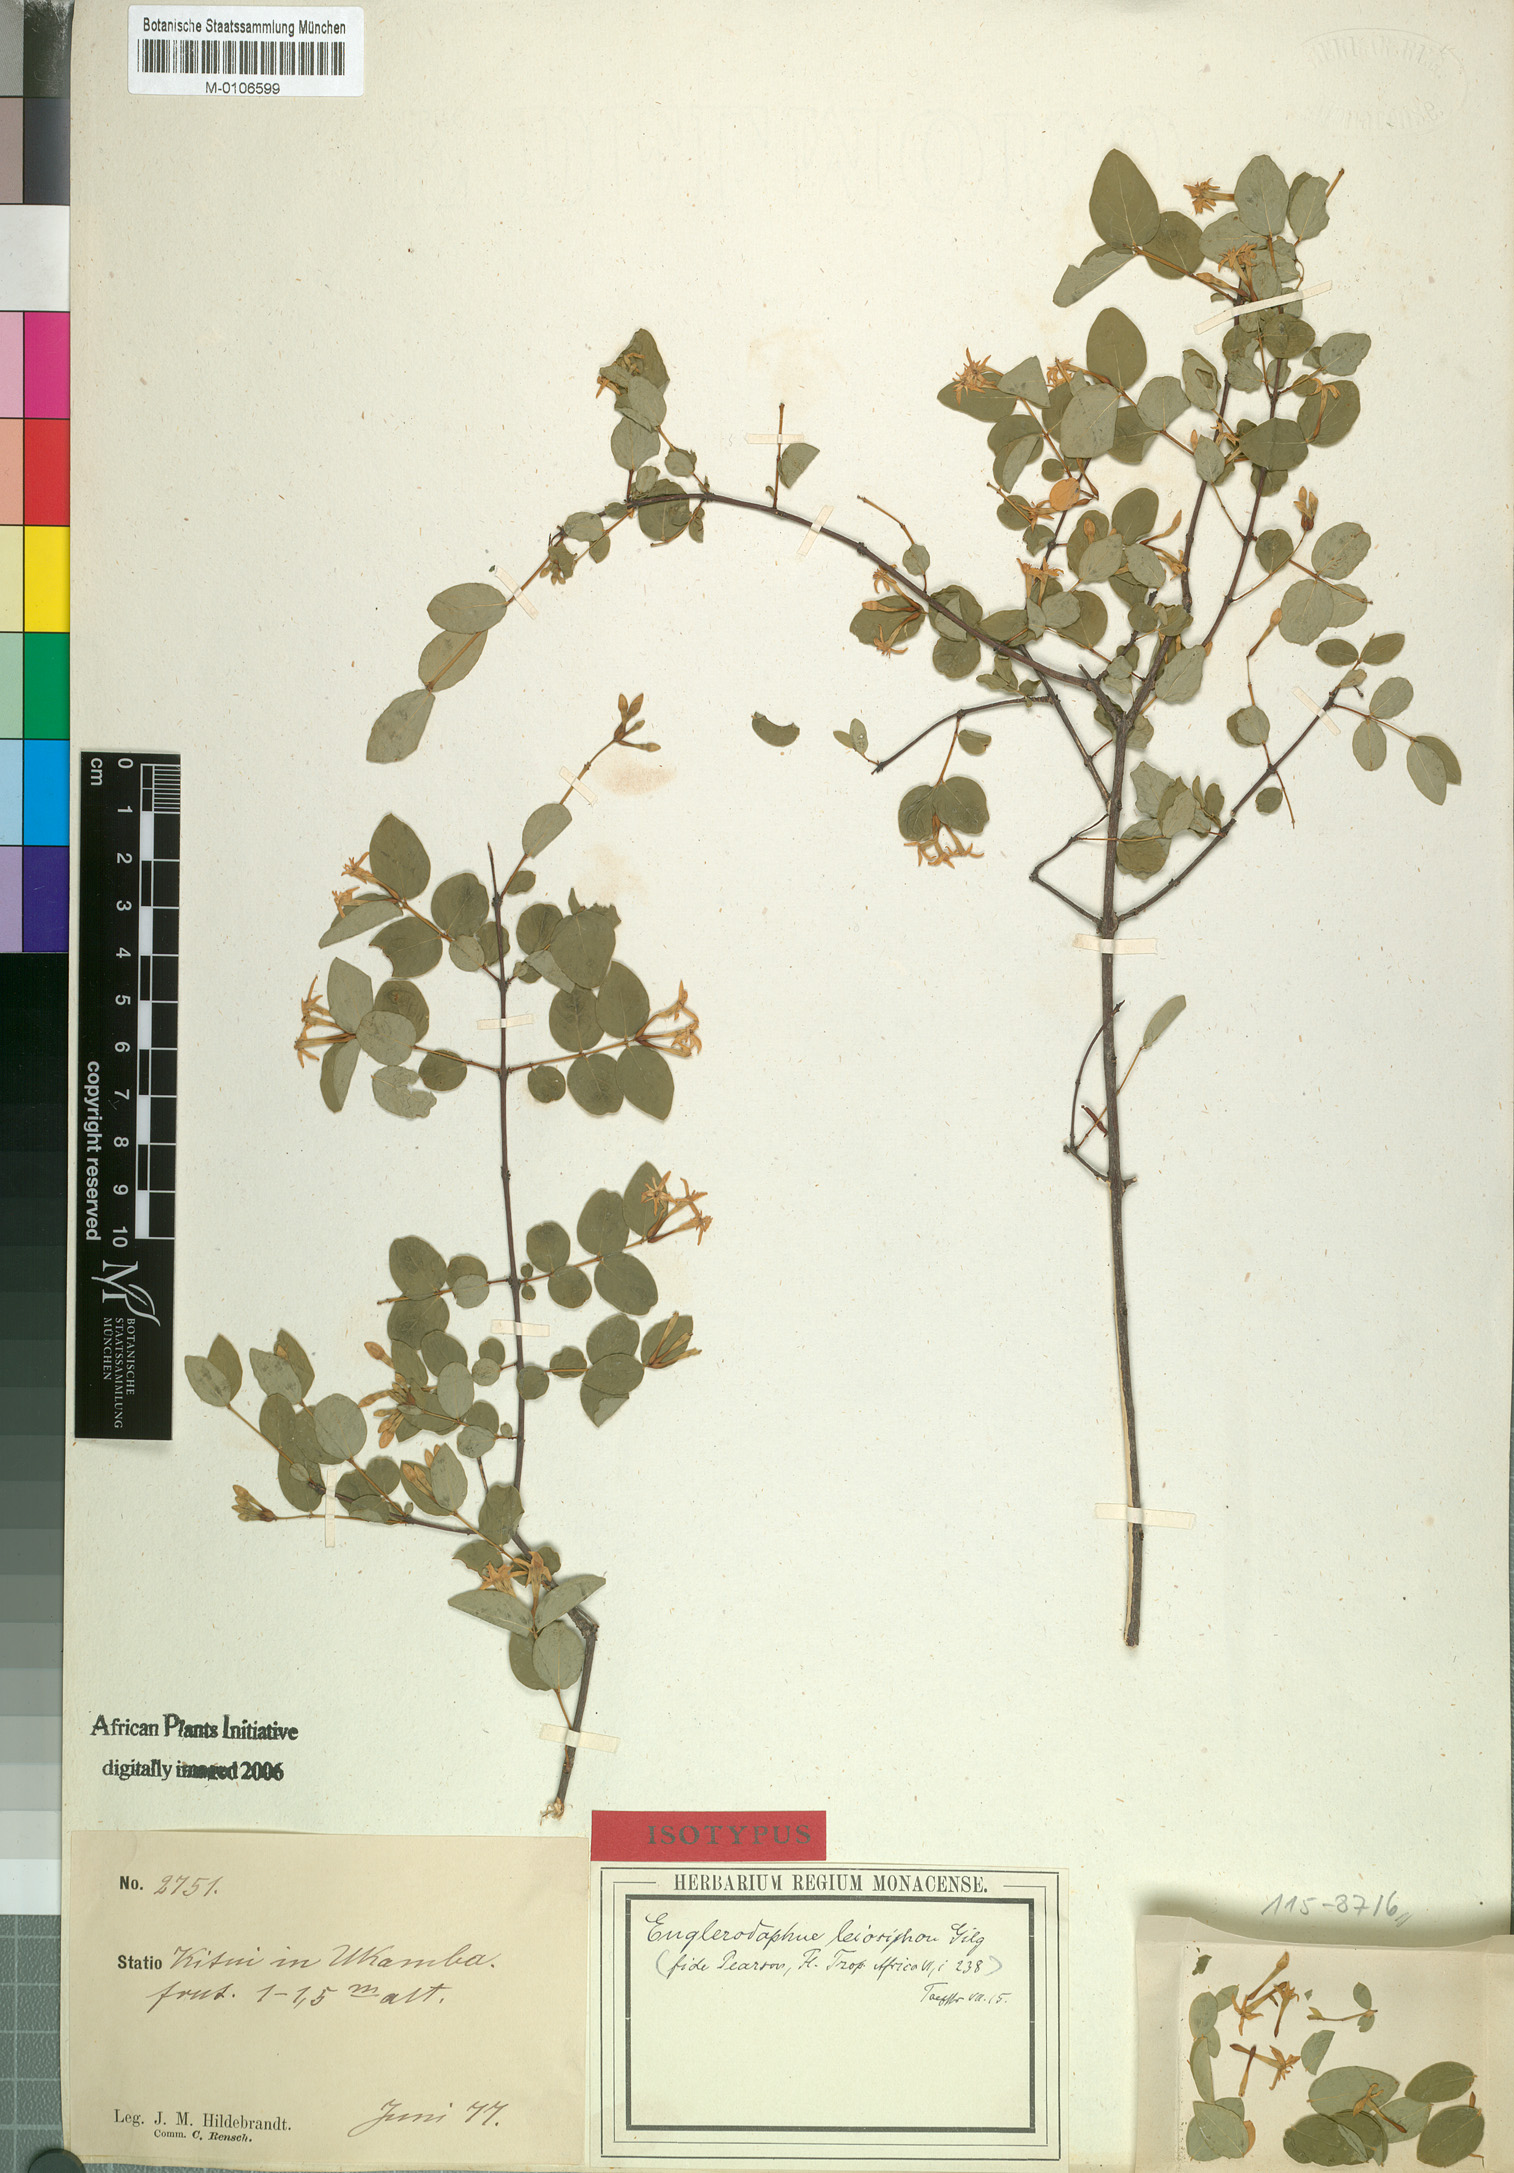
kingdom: Plantae
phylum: Tracheophyta
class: Magnoliopsida
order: Malvales
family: Thymelaeaceae
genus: Gnidia
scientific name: Gnidia subcordata
